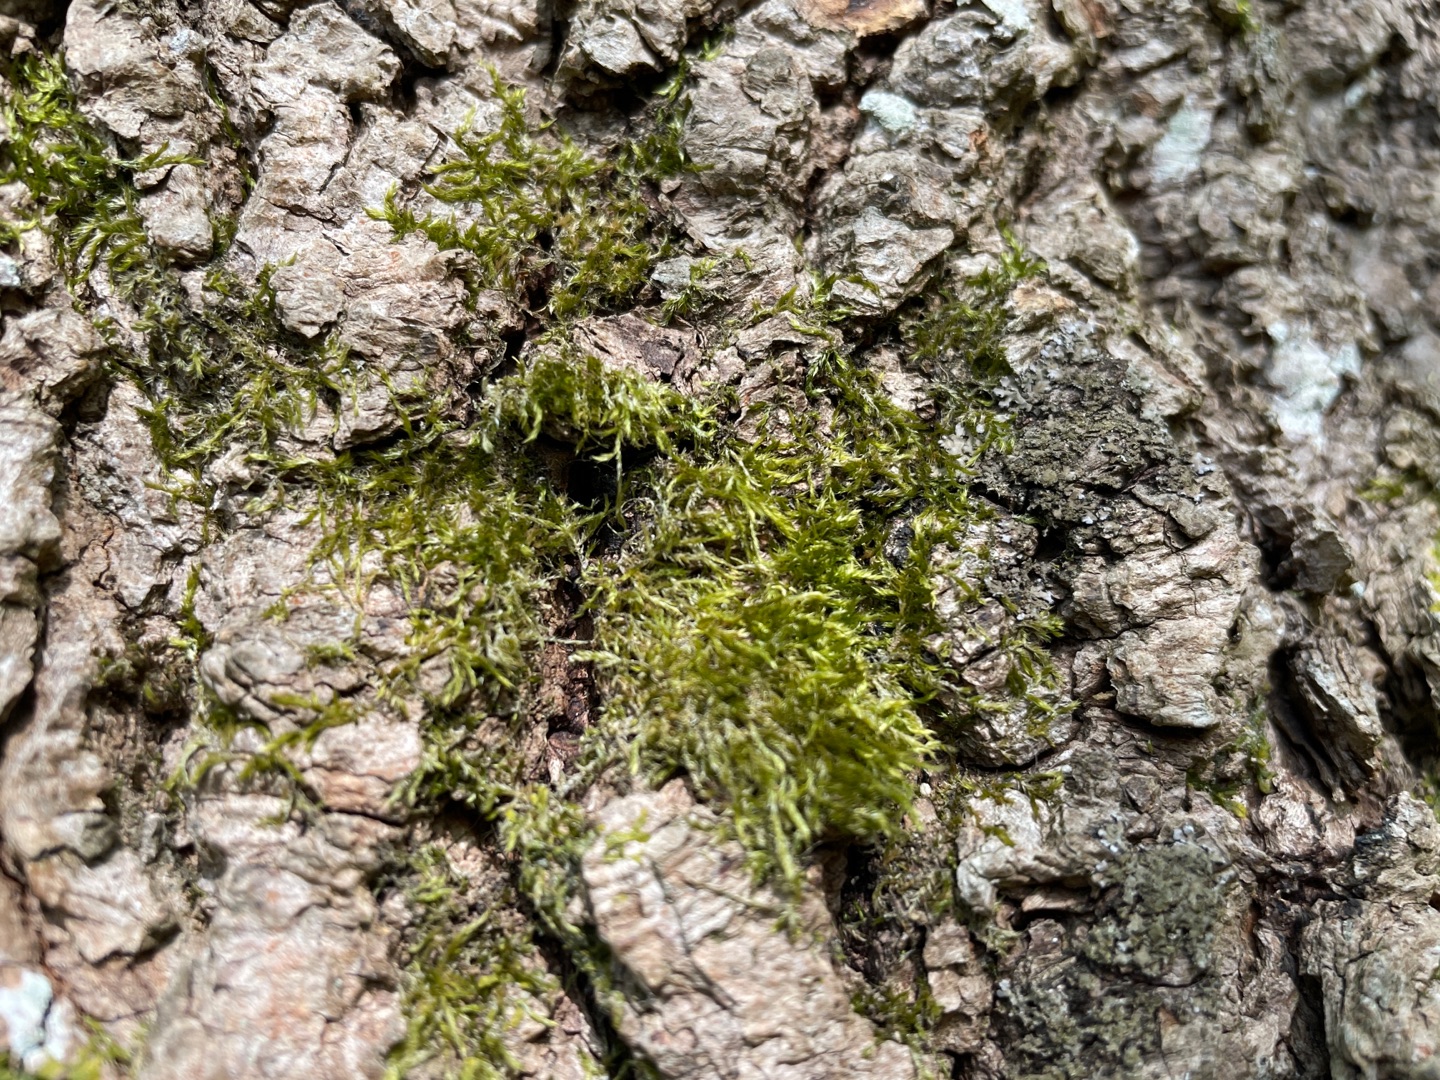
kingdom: Plantae
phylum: Bryophyta
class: Bryopsida
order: Hypnales
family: Hypnaceae
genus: Hypnum
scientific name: Hypnum
